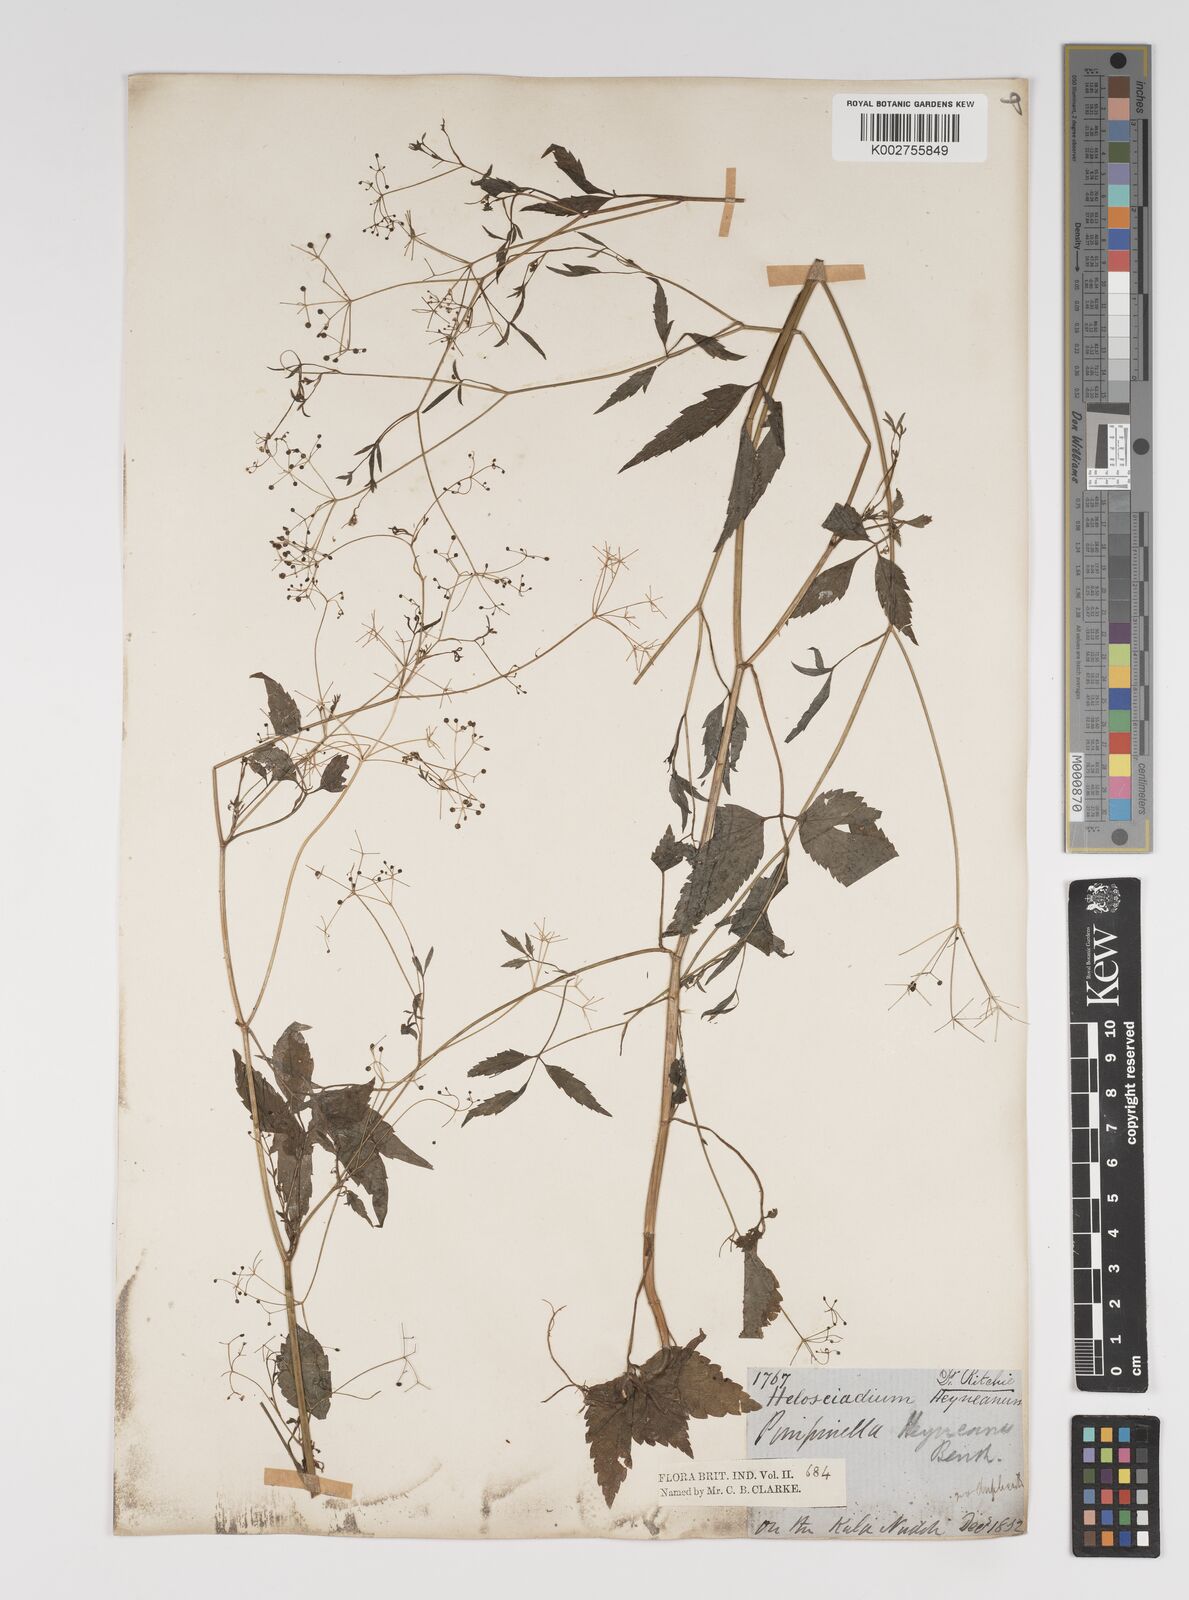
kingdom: Plantae
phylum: Tracheophyta
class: Magnoliopsida
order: Apiales
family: Apiaceae
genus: Pimpinella
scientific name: Pimpinella heyneana
